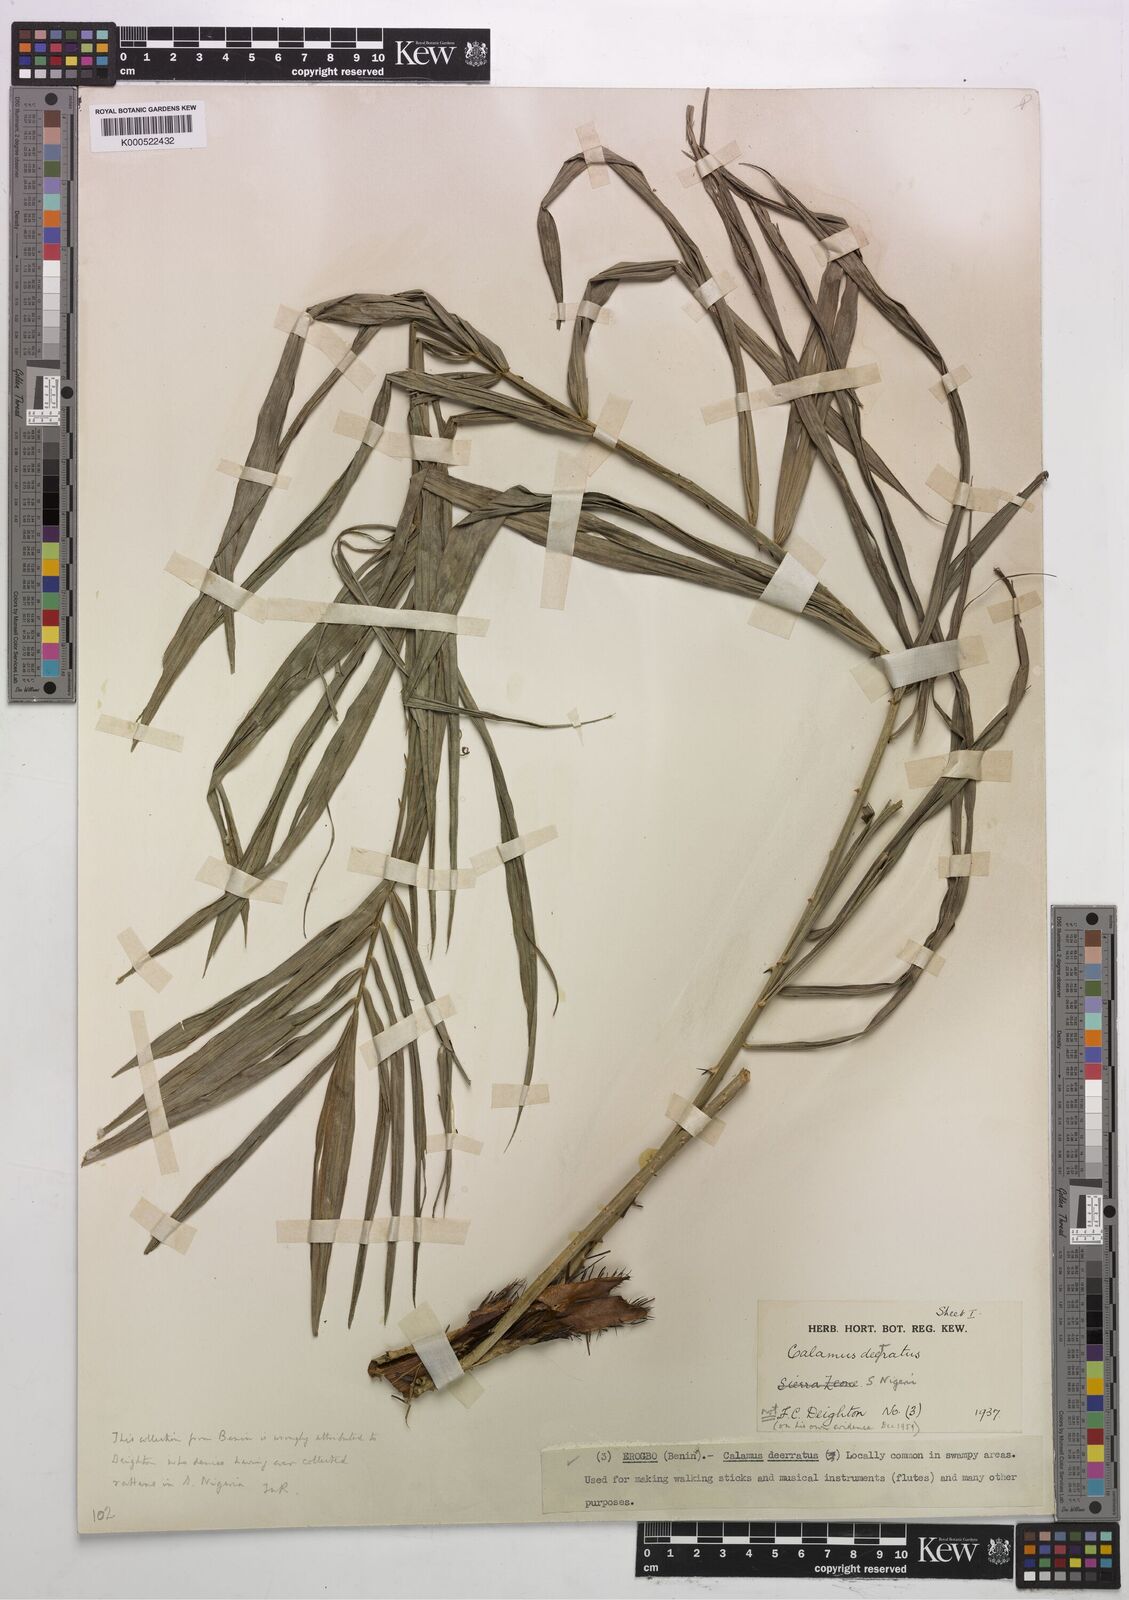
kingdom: Plantae
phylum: Tracheophyta
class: Liliopsida
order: Arecales
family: Arecaceae
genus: Calamus
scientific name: Calamus deerratus
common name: Rattan
